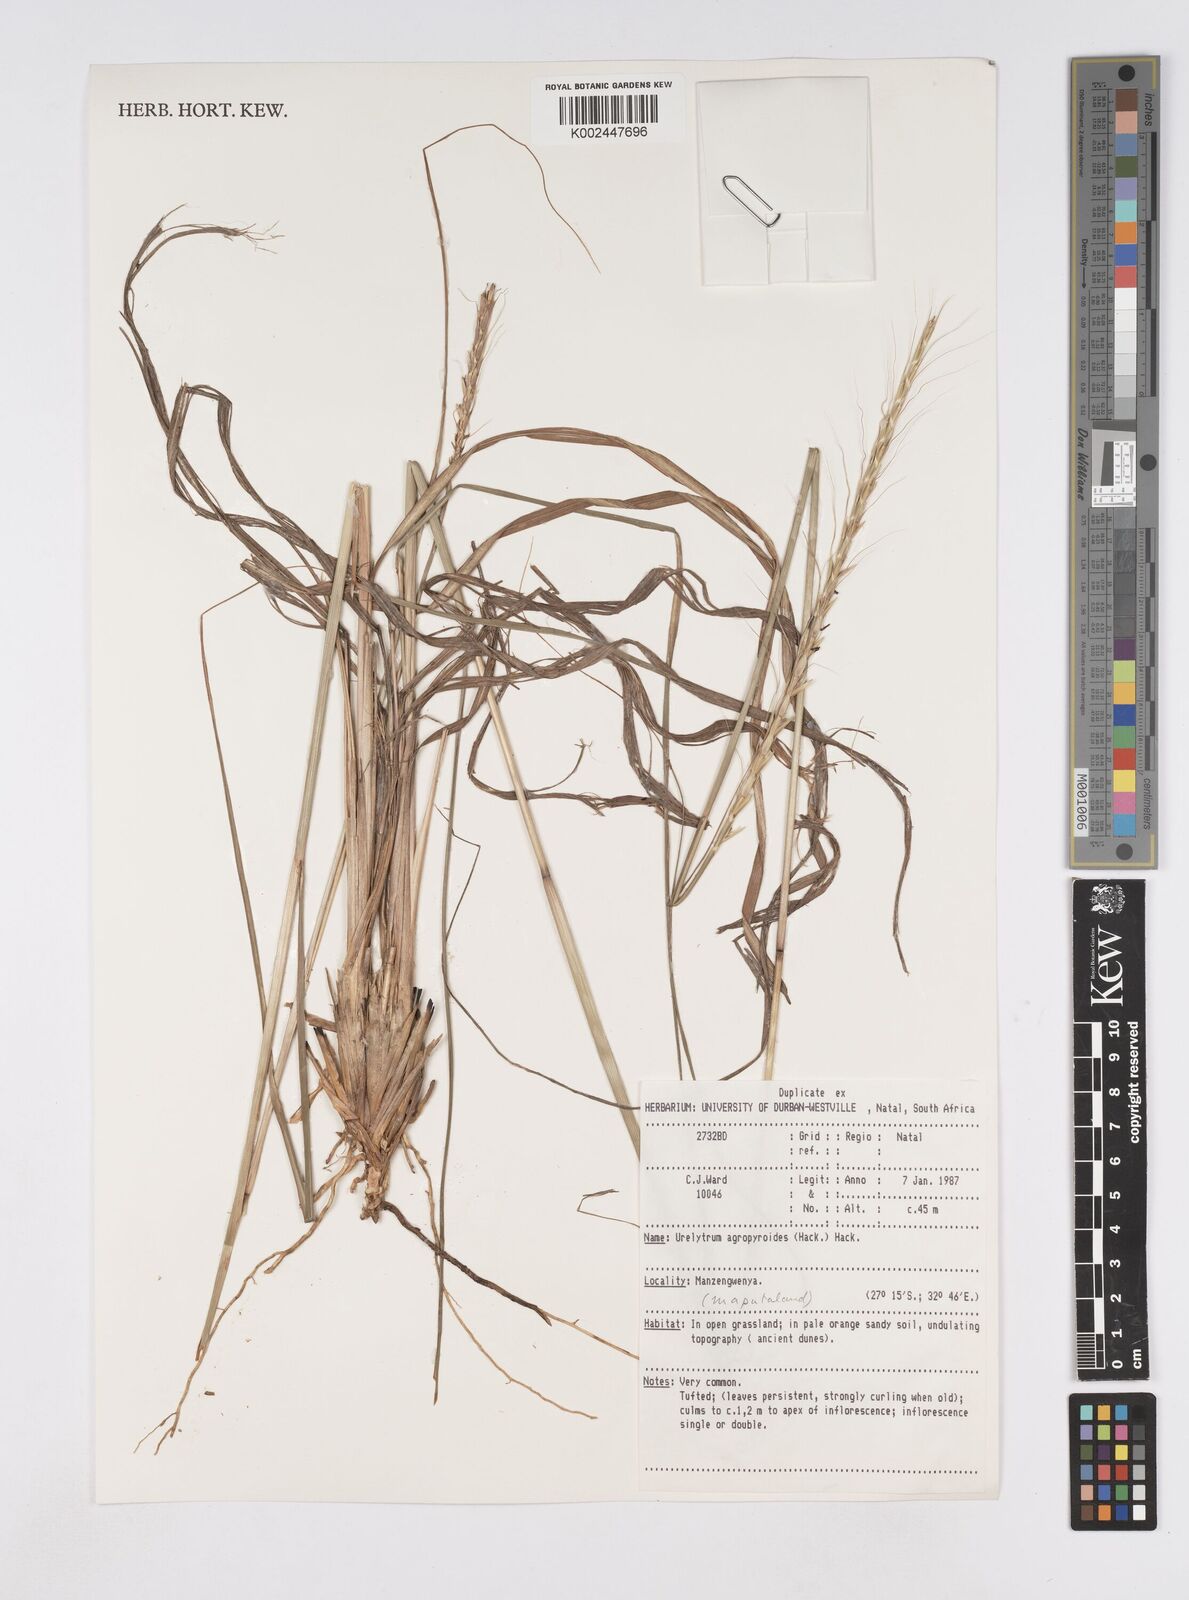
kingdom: Plantae
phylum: Tracheophyta
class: Liliopsida
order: Poales
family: Poaceae
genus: Urelytrum
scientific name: Urelytrum agropyroides
